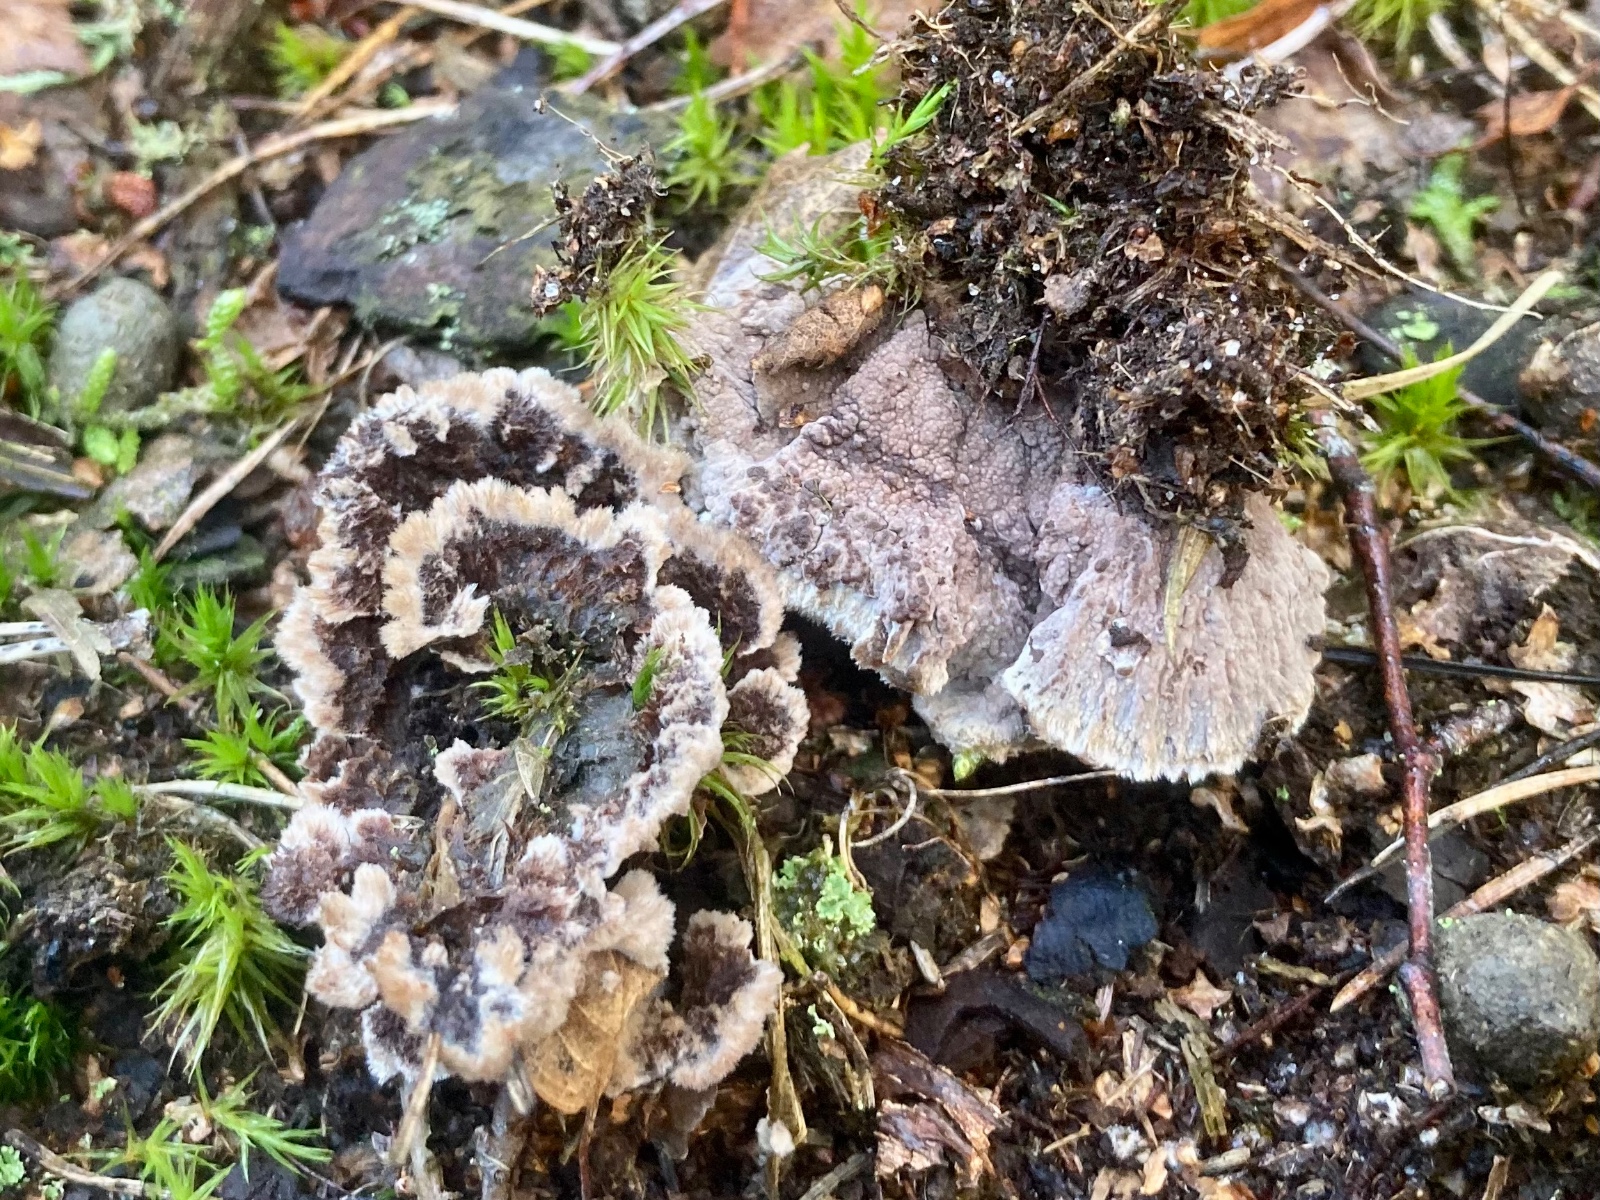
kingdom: Fungi
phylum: Basidiomycota
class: Agaricomycetes
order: Thelephorales
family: Thelephoraceae
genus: Thelephora
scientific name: Thelephora terrestris
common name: fliget frynsesvamp
